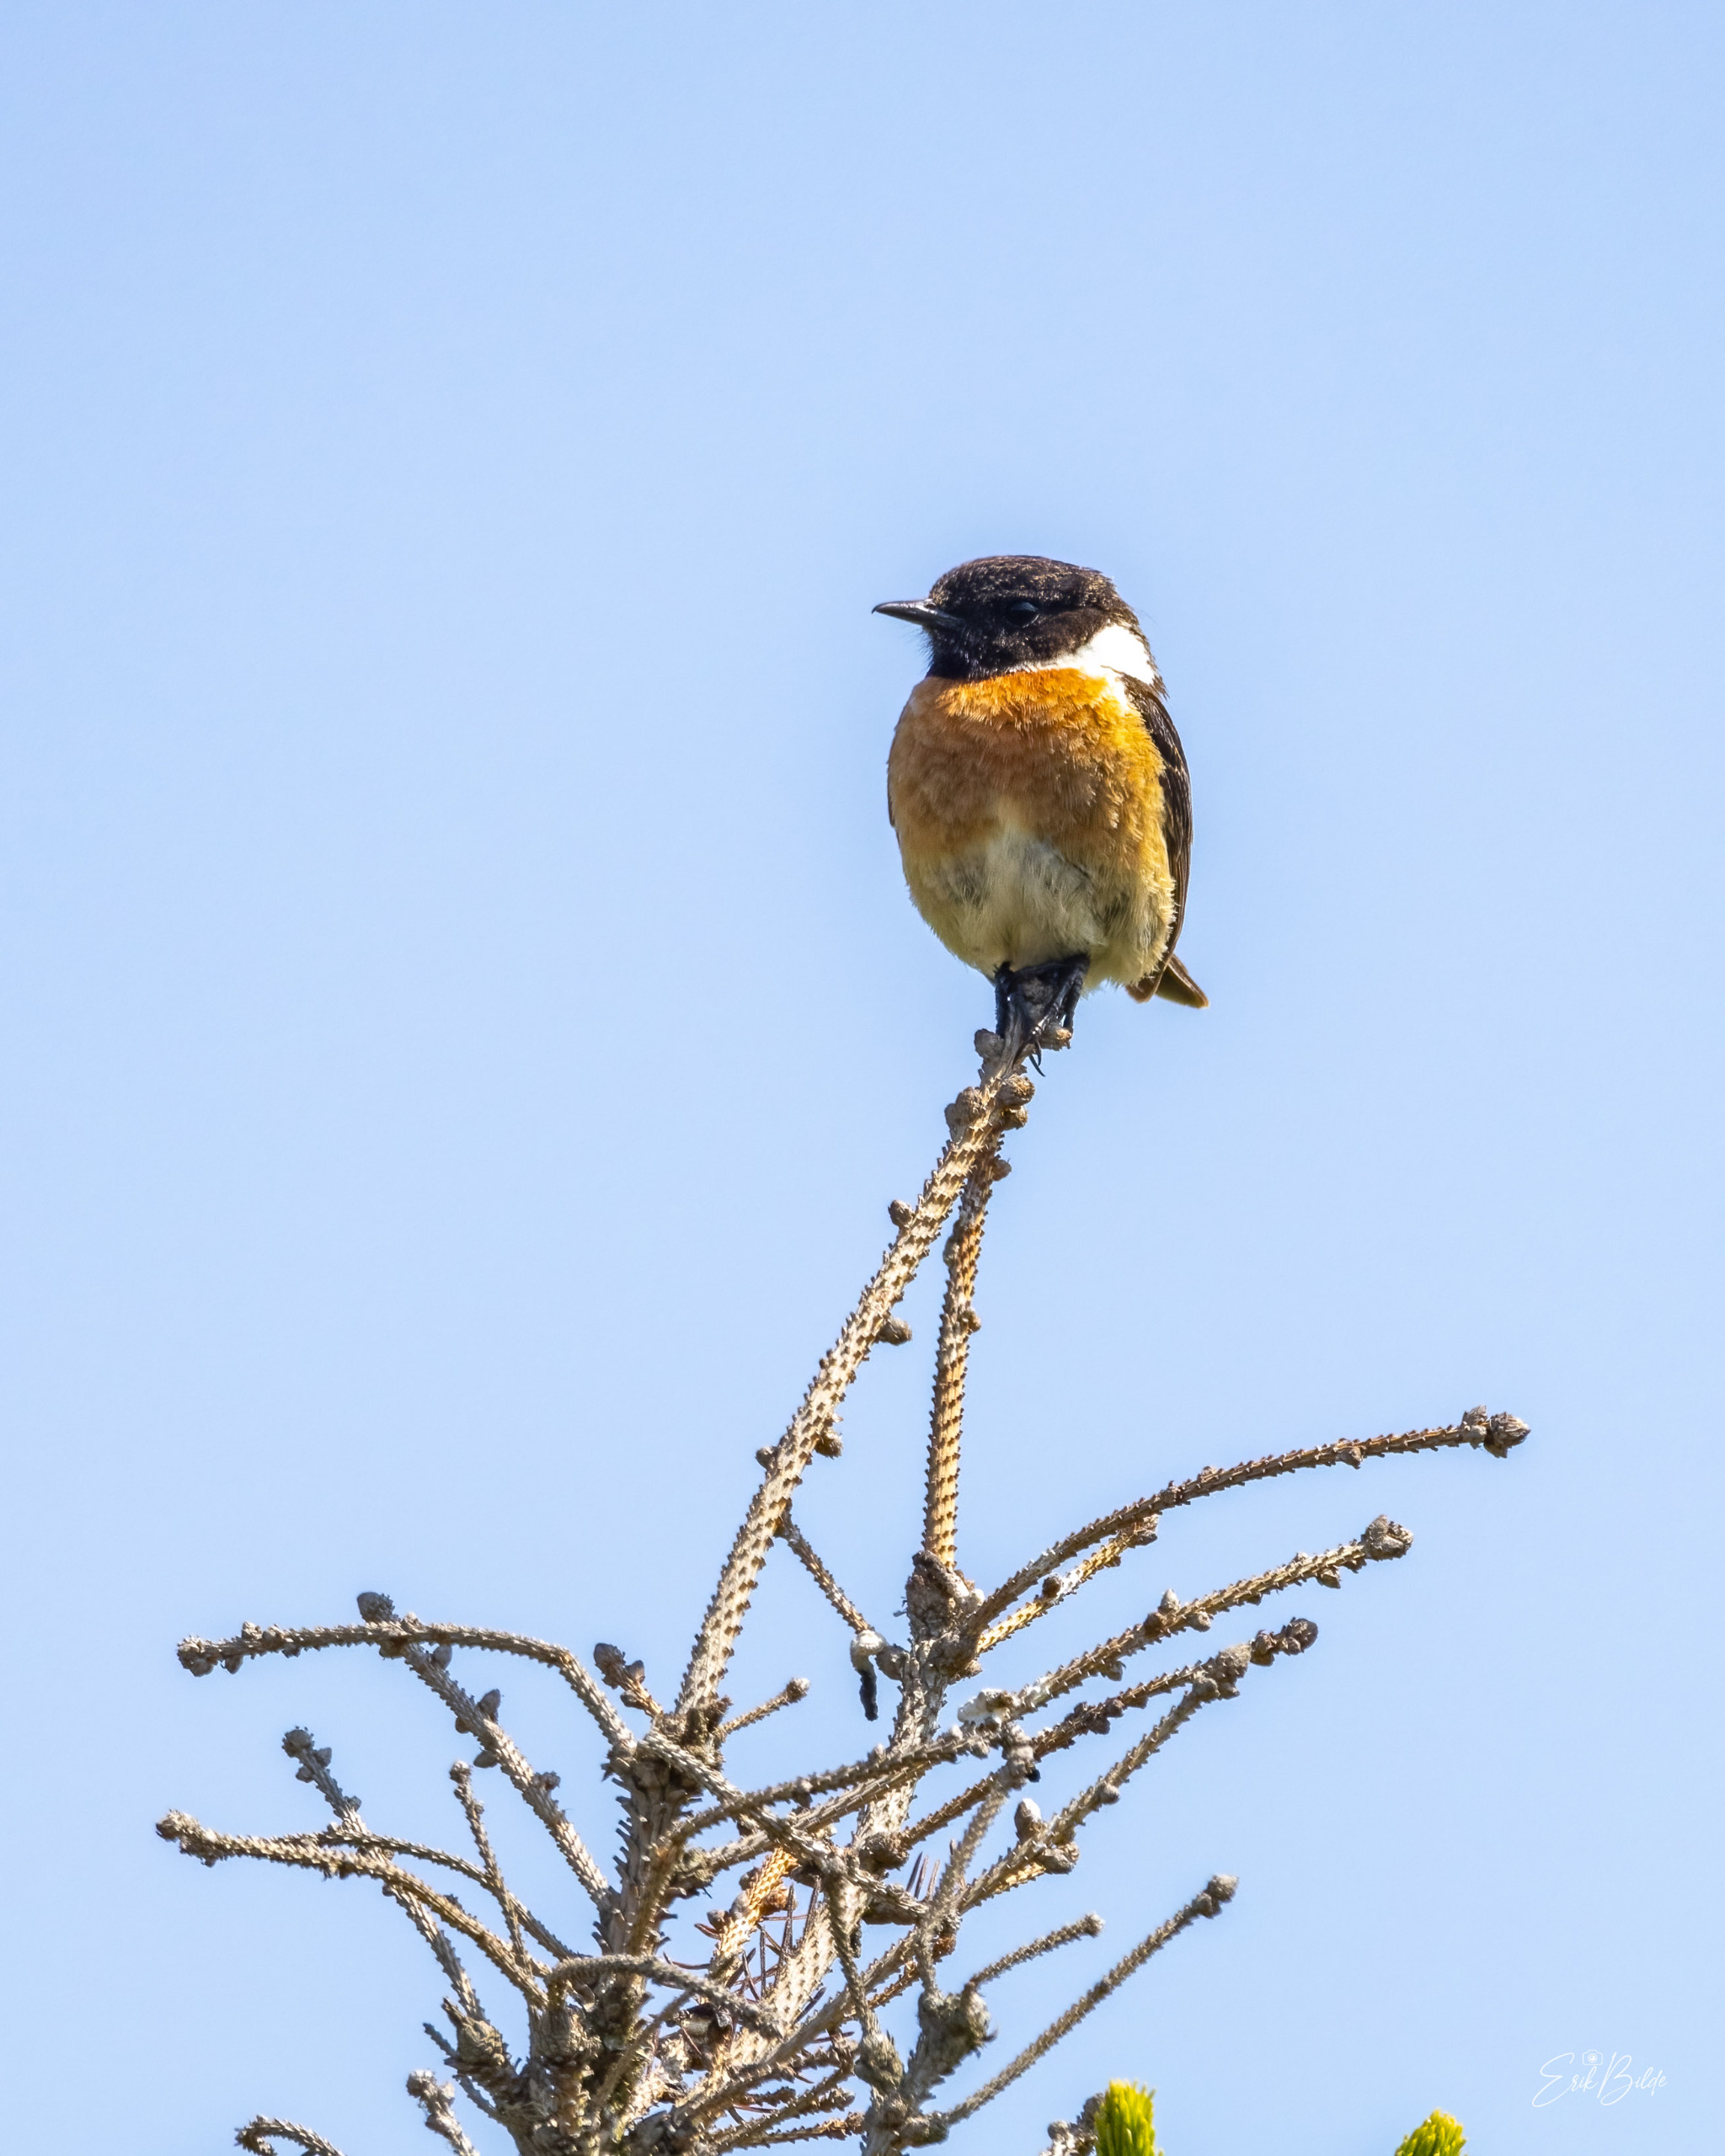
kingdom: Animalia
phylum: Chordata
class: Aves
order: Passeriformes
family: Muscicapidae
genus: Saxicola
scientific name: Saxicola rubicola
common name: Sortstrubet bynkefugl
